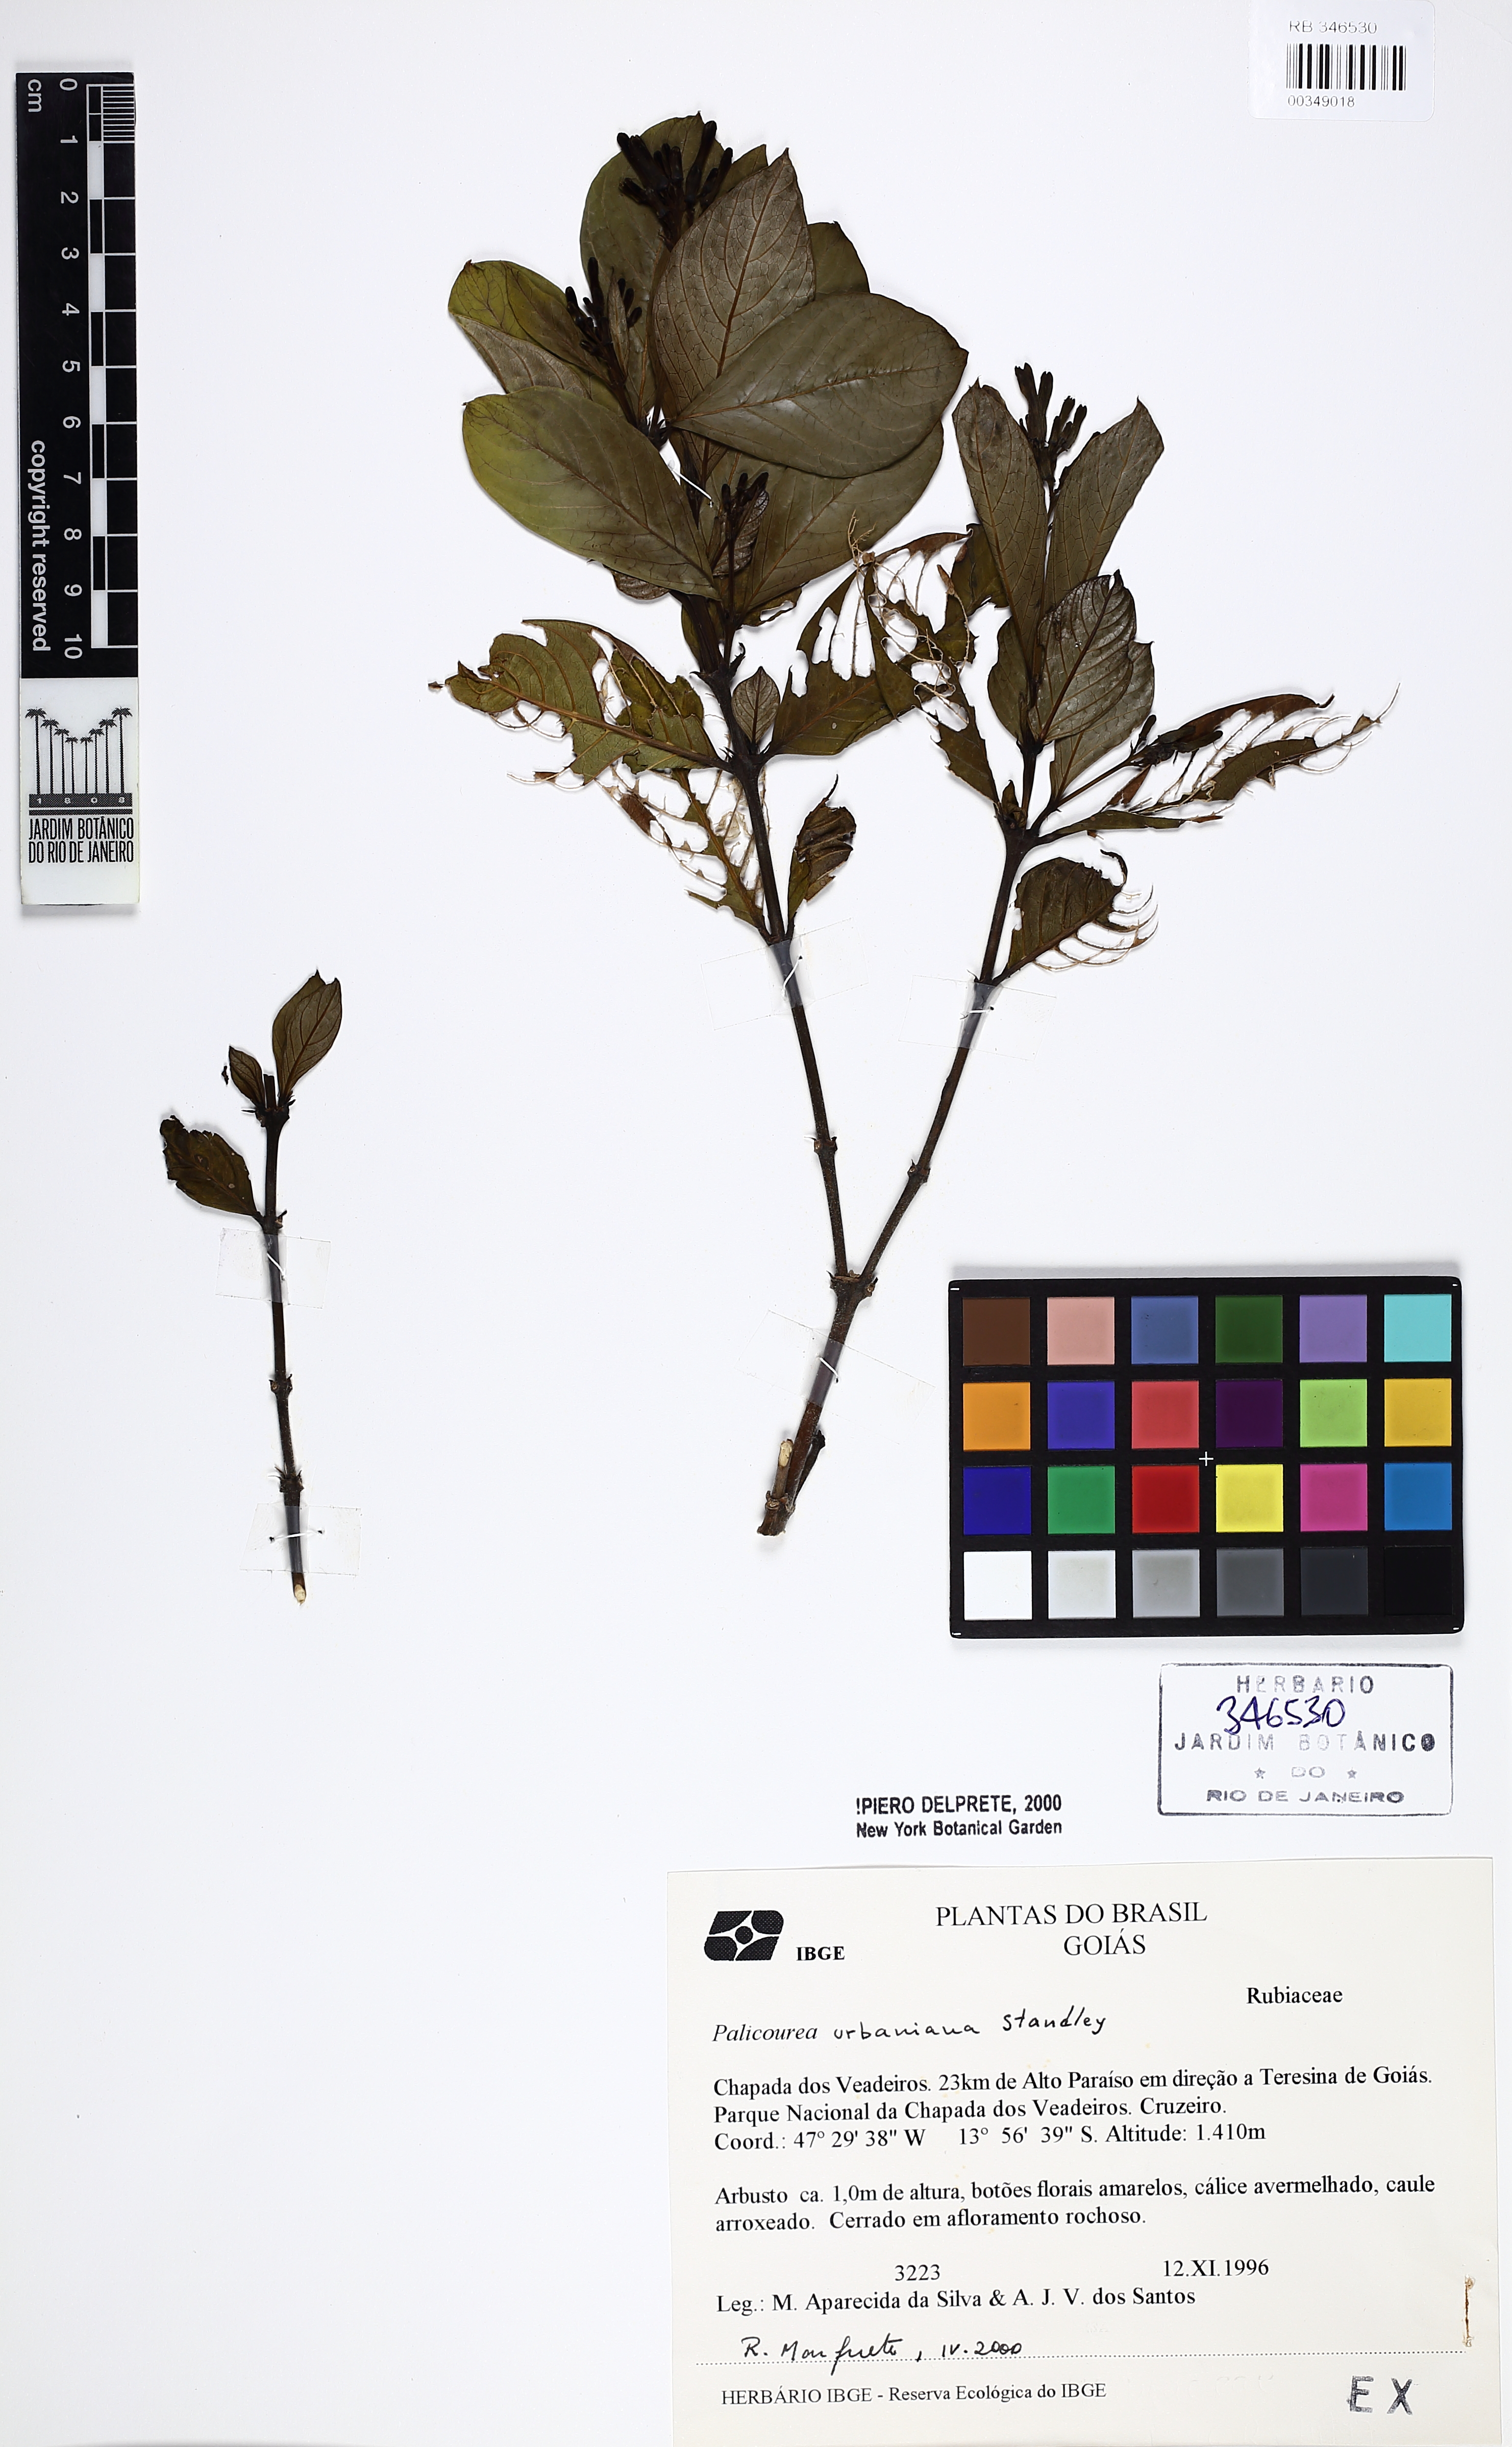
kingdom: Plantae
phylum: Tracheophyta
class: Magnoliopsida
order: Gentianales
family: Rubiaceae
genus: Palicourea
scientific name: Palicourea urbaniana
